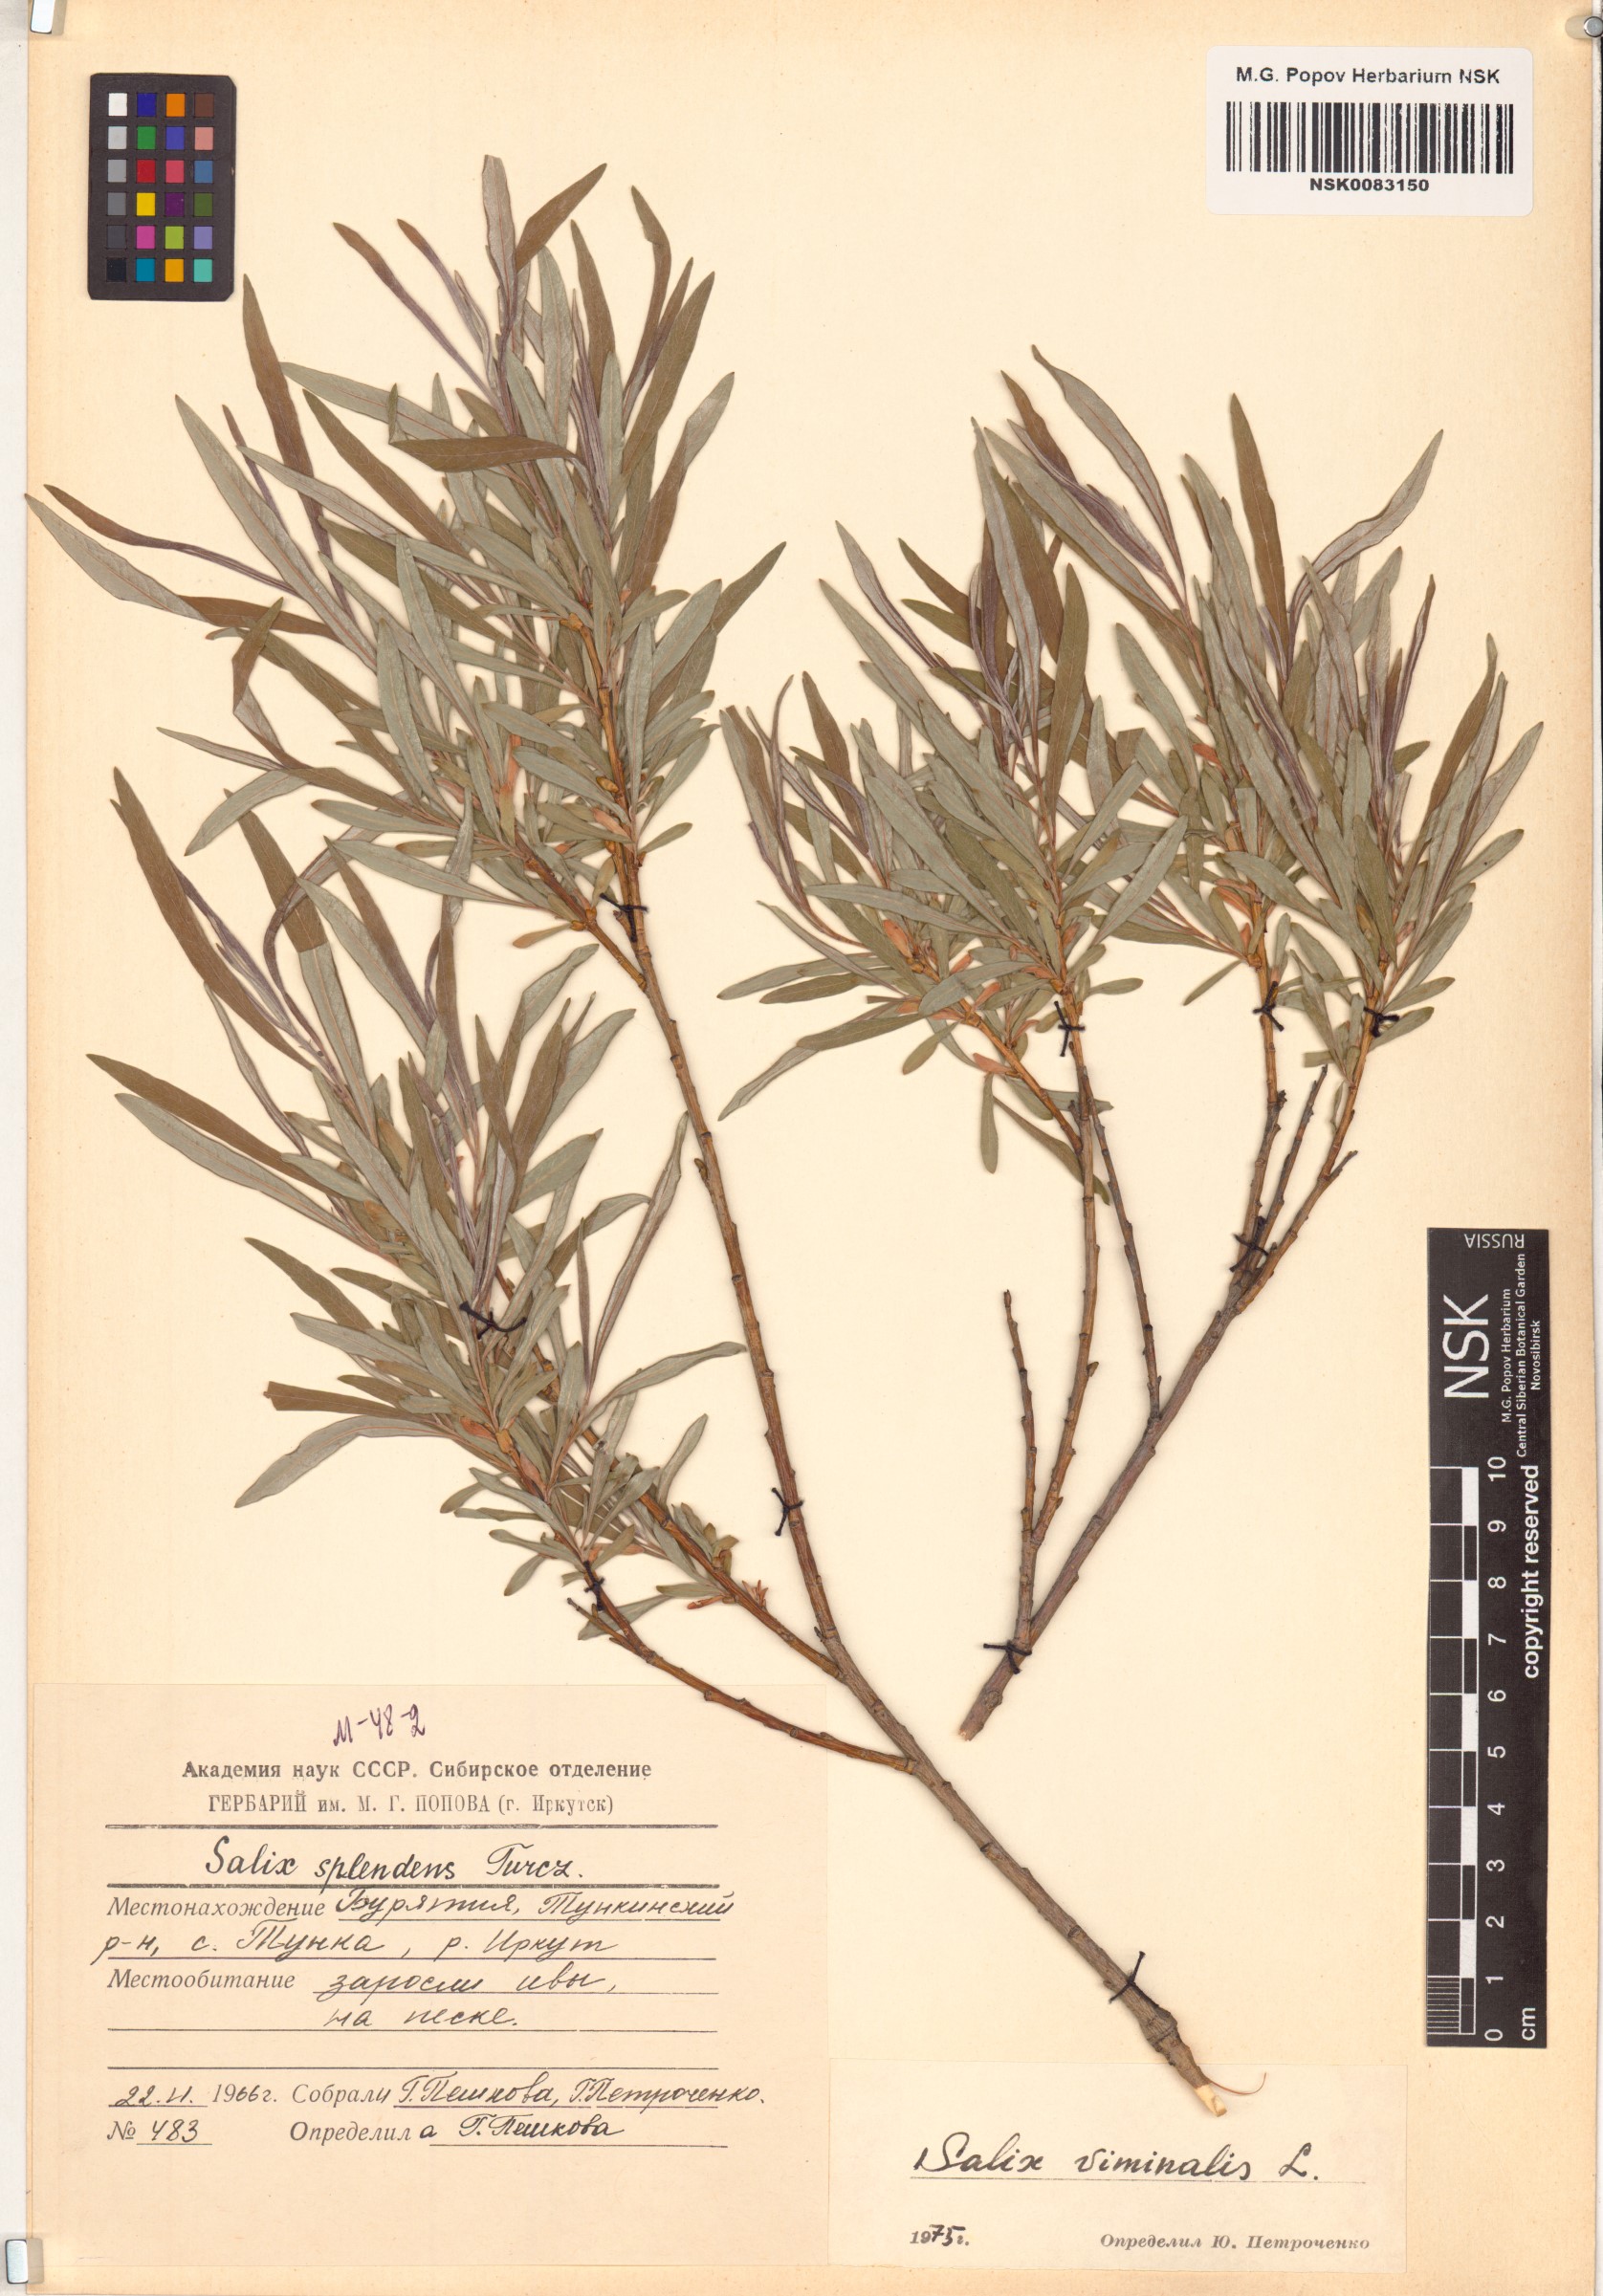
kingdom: Plantae
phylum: Tracheophyta
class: Magnoliopsida
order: Malpighiales
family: Salicaceae
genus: Salix
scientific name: Salix viminalis
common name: Osier
